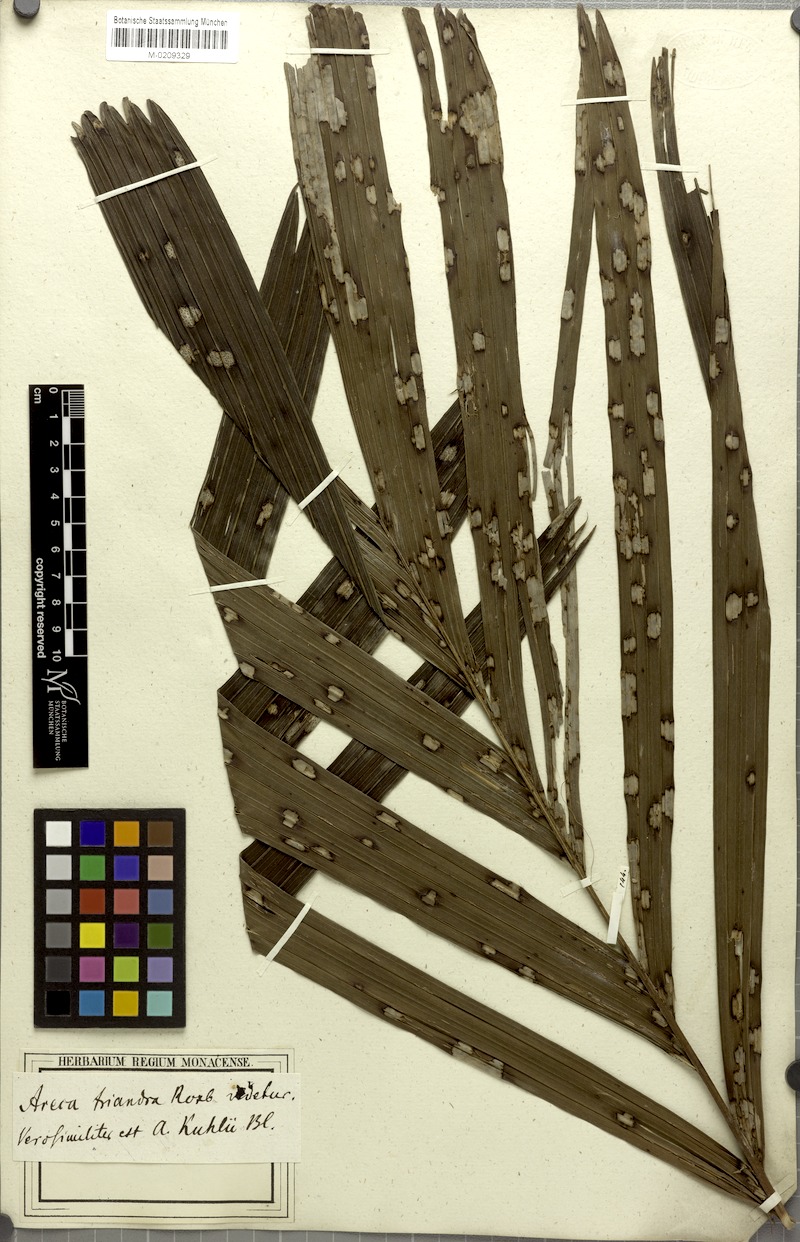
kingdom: Plantae
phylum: Tracheophyta
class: Liliopsida
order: Arecales
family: Arecaceae
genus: Areca
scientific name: Areca catechu
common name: Indian-nut
